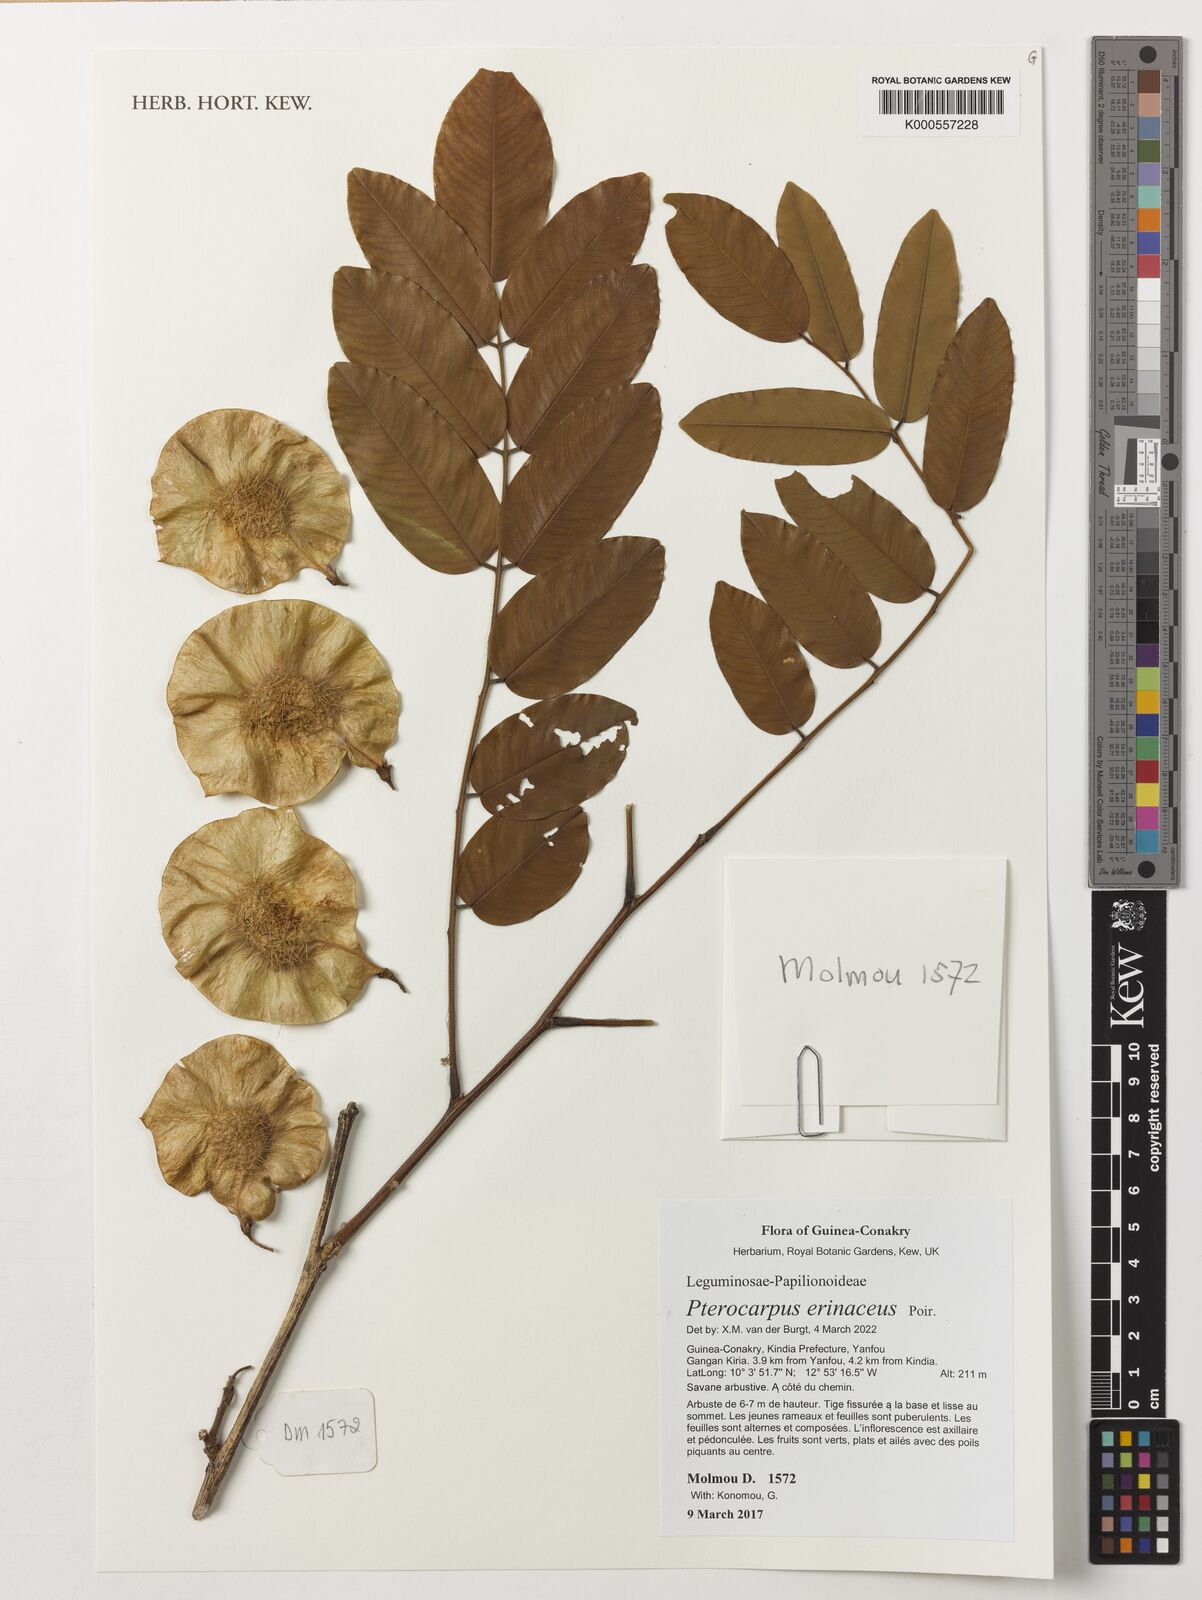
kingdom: Plantae
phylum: Tracheophyta
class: Magnoliopsida
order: Fabales
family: Fabaceae
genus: Pterocarpus
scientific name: Pterocarpus erinaceus
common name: African rosewood
